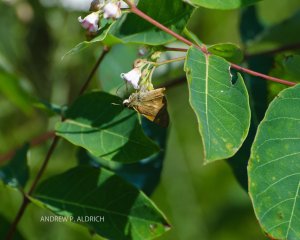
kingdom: Animalia
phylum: Arthropoda
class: Insecta
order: Lepidoptera
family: Hesperiidae
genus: Polites
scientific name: Polites egeremet
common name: Northern Broken-Dash
